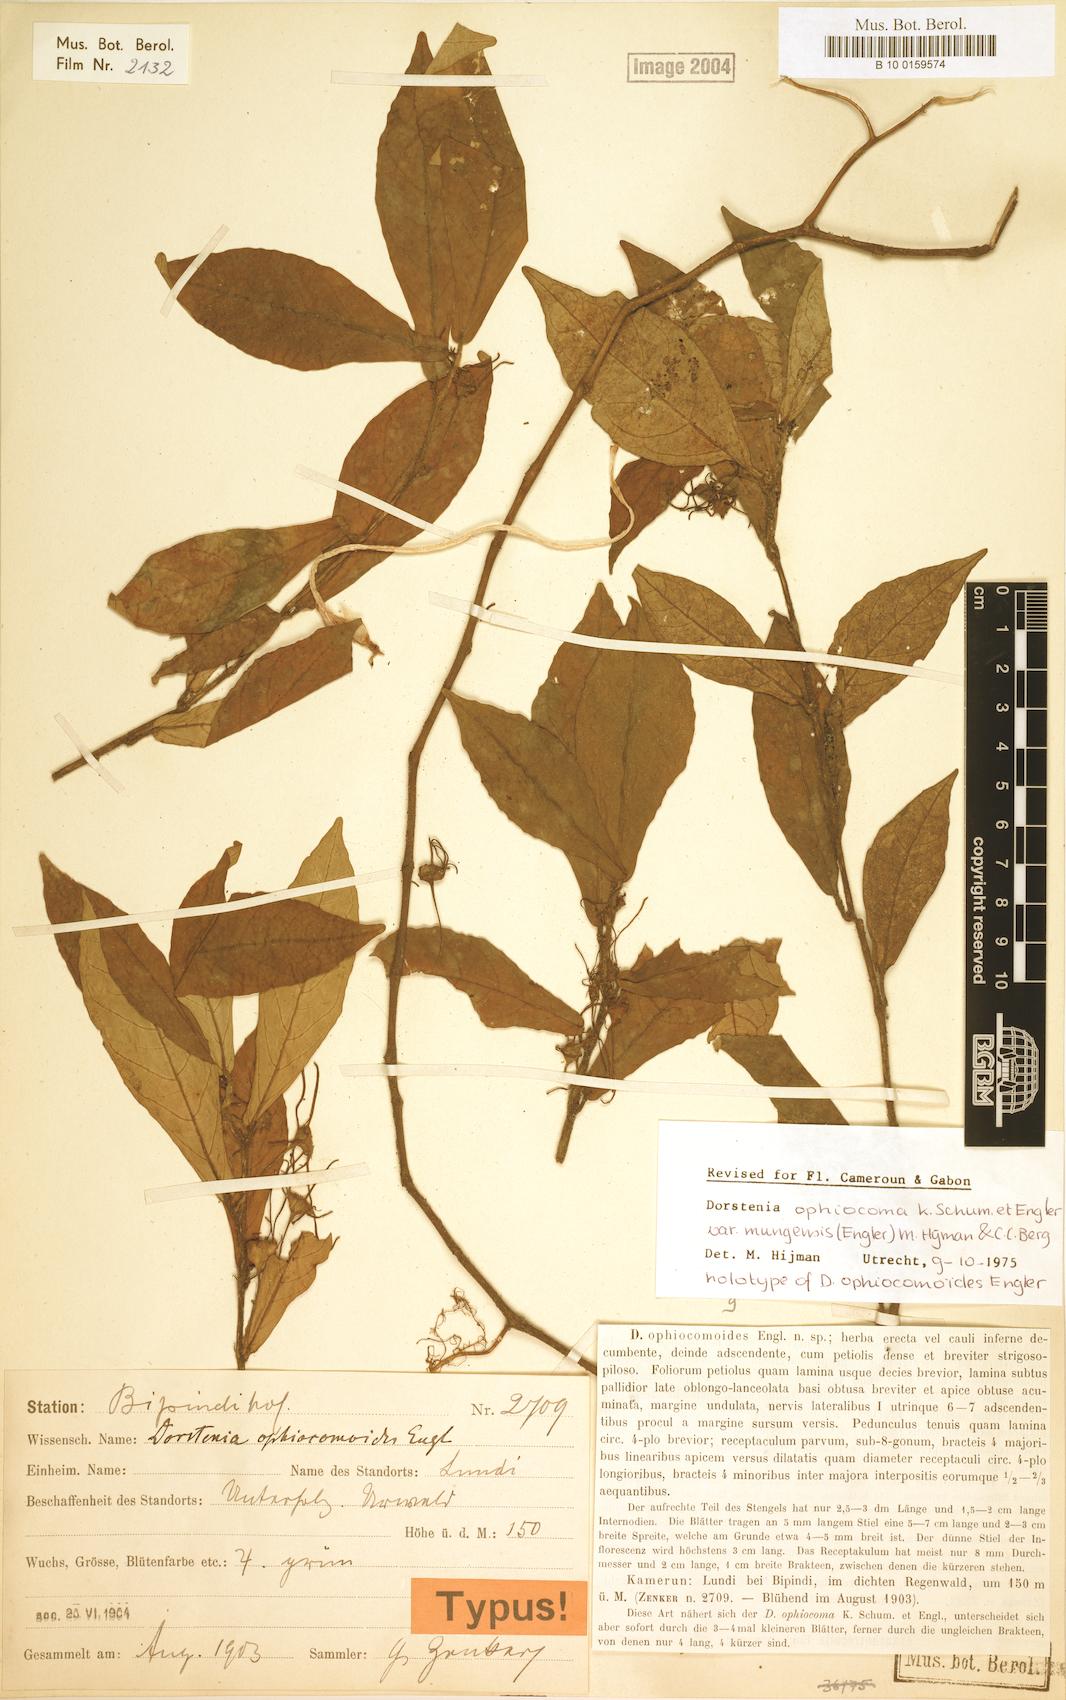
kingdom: Plantae
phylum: Tracheophyta
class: Magnoliopsida
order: Rosales
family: Moraceae
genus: Dorstenia
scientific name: Dorstenia mannii
